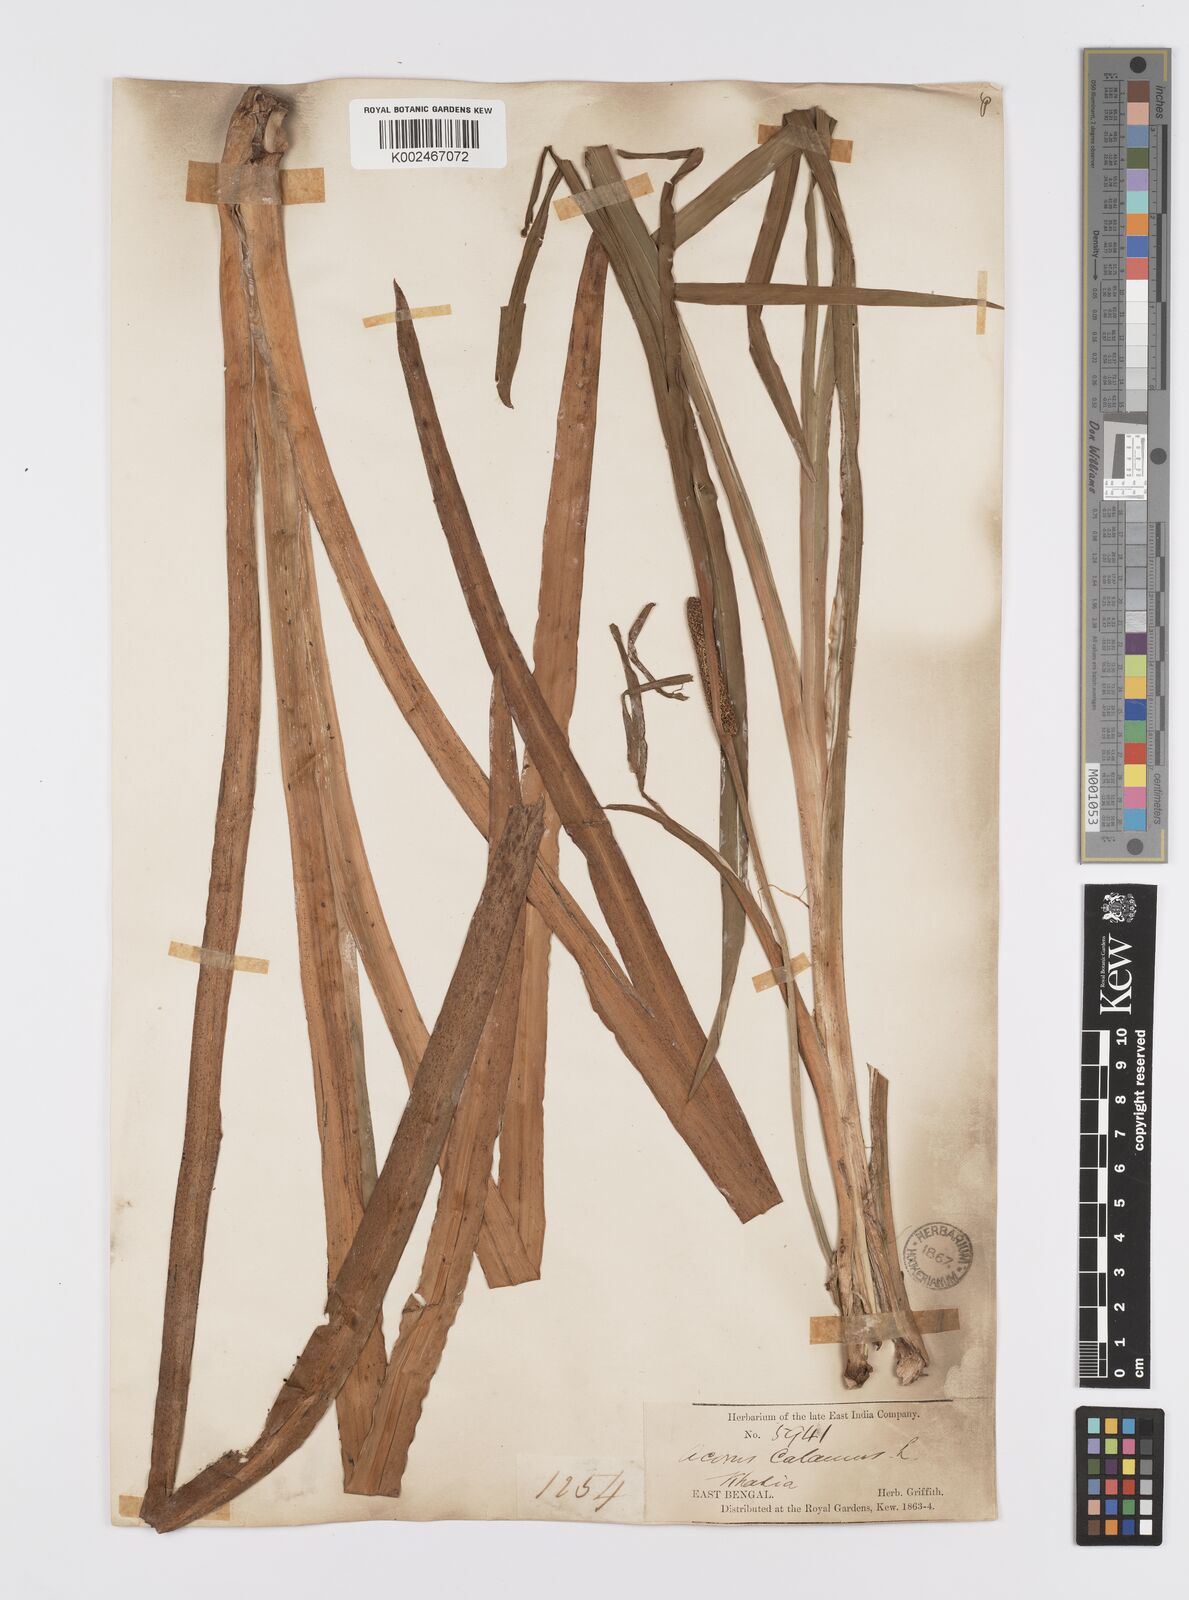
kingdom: Plantae
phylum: Tracheophyta
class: Liliopsida
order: Acorales
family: Acoraceae
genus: Acorus
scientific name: Acorus calamus
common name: Sweet-flag
